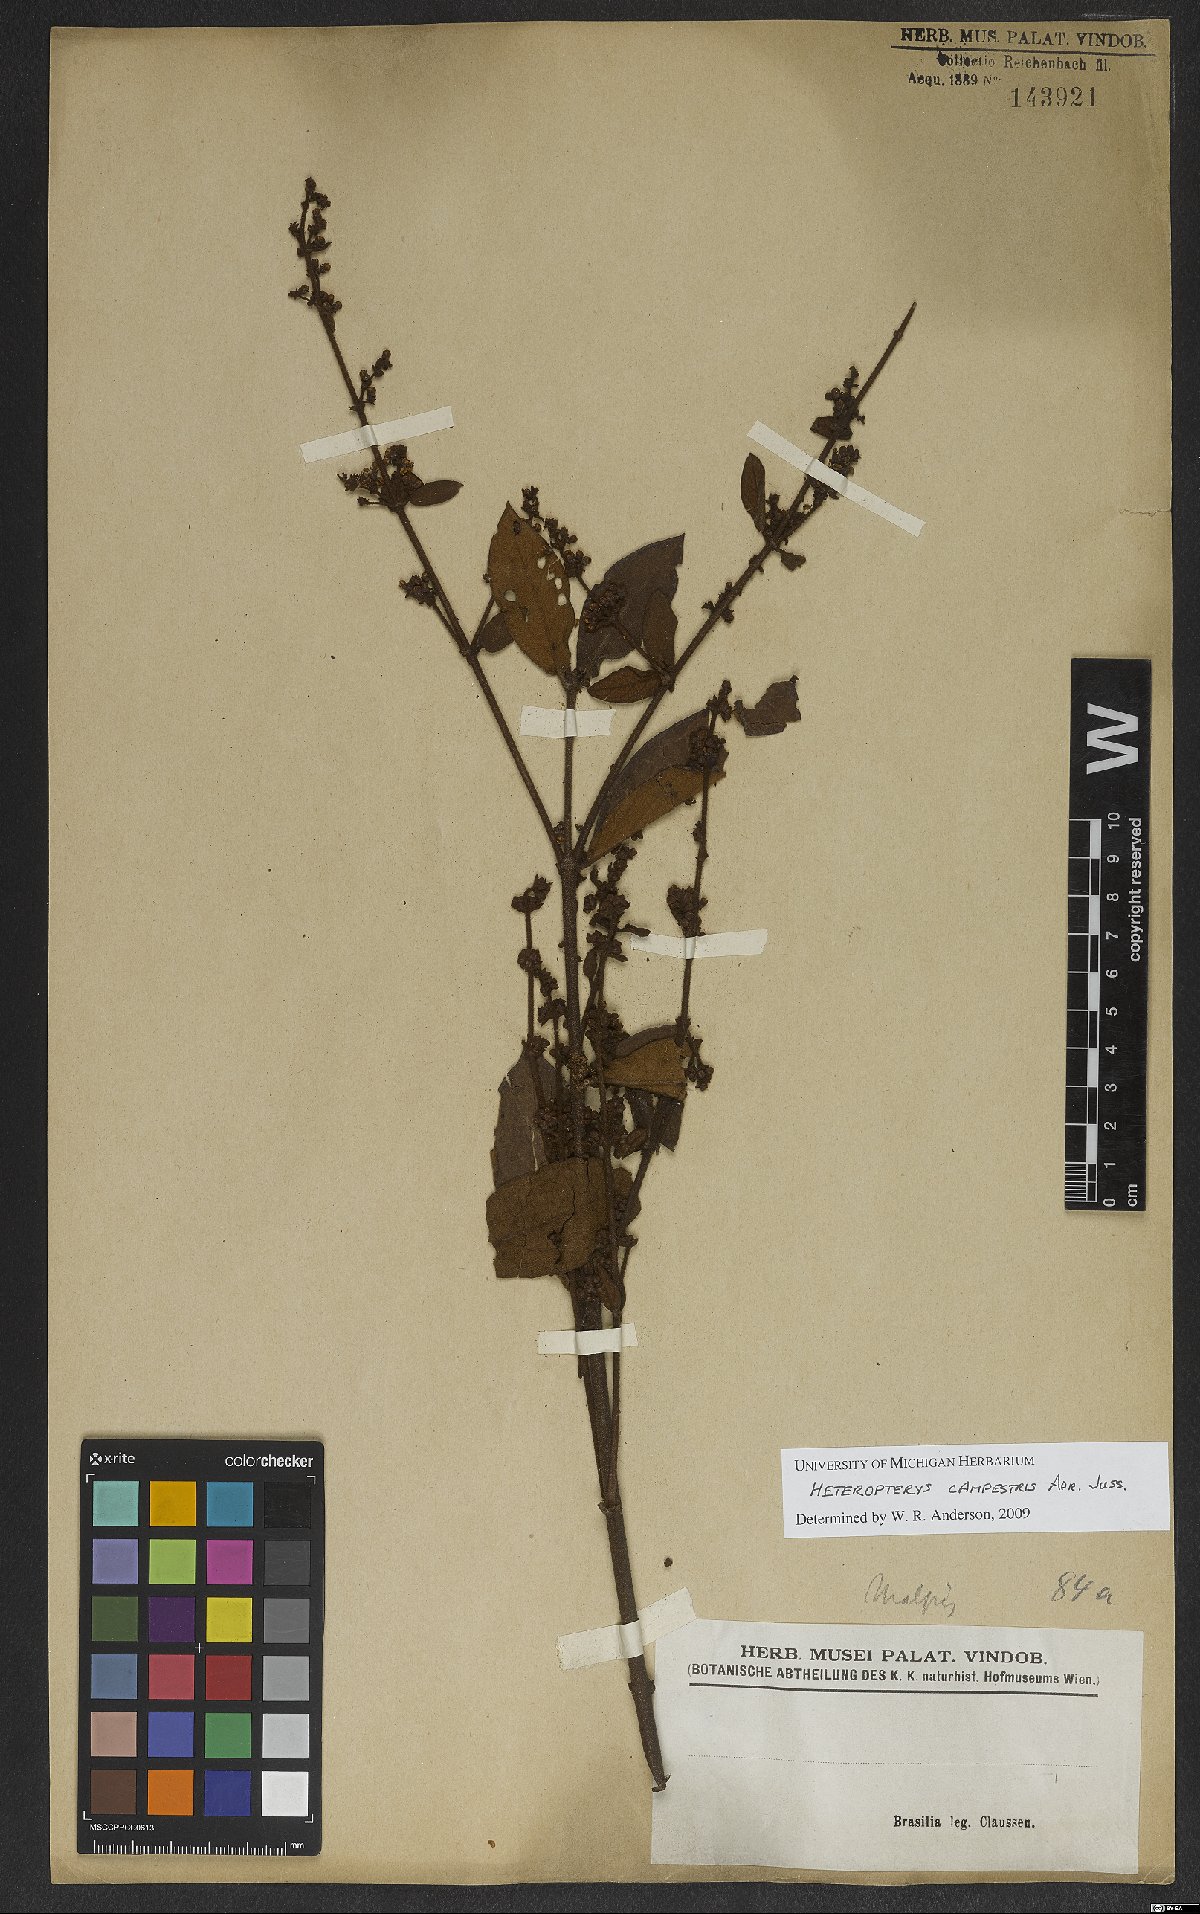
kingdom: Plantae
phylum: Tracheophyta
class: Magnoliopsida
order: Malpighiales
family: Malpighiaceae
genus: Heteropterys
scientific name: Heteropterys campestris
